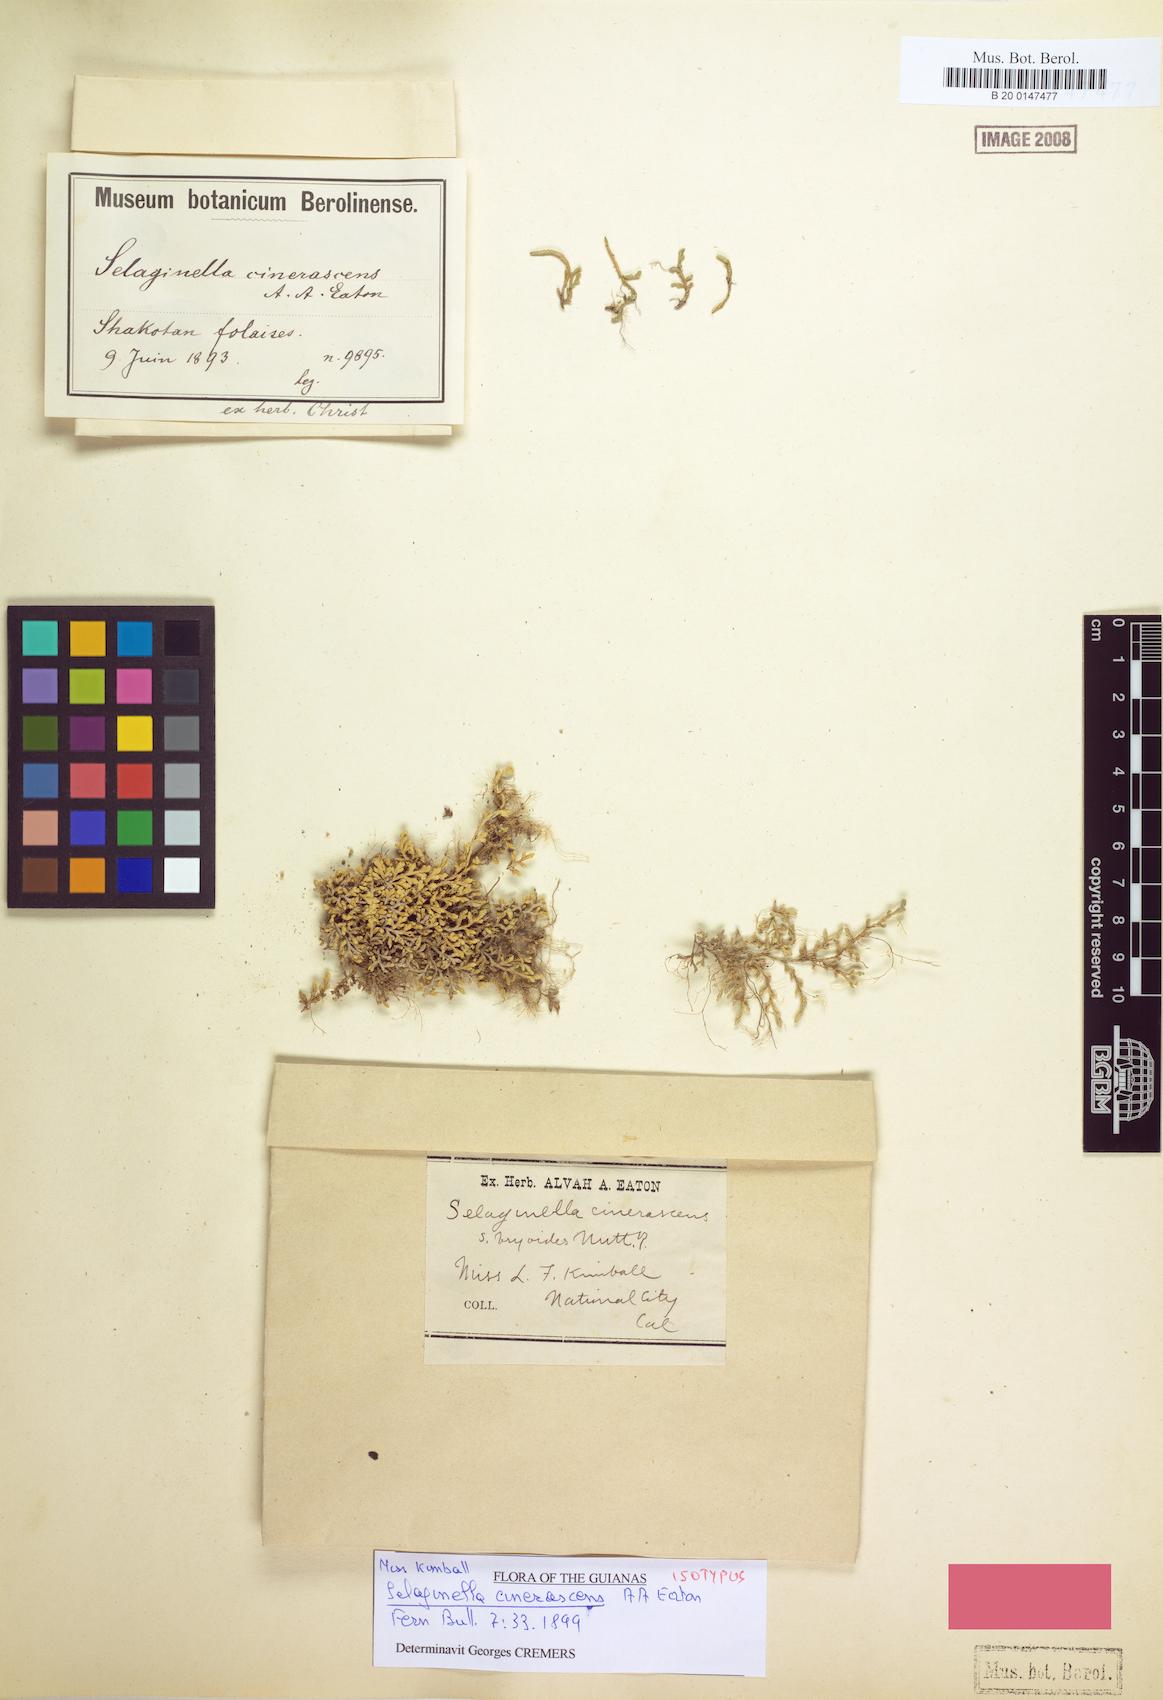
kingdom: Plantae
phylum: Tracheophyta
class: Lycopodiopsida
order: Selaginellales
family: Selaginellaceae
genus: Selaginella
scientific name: Selaginella cinerascens
